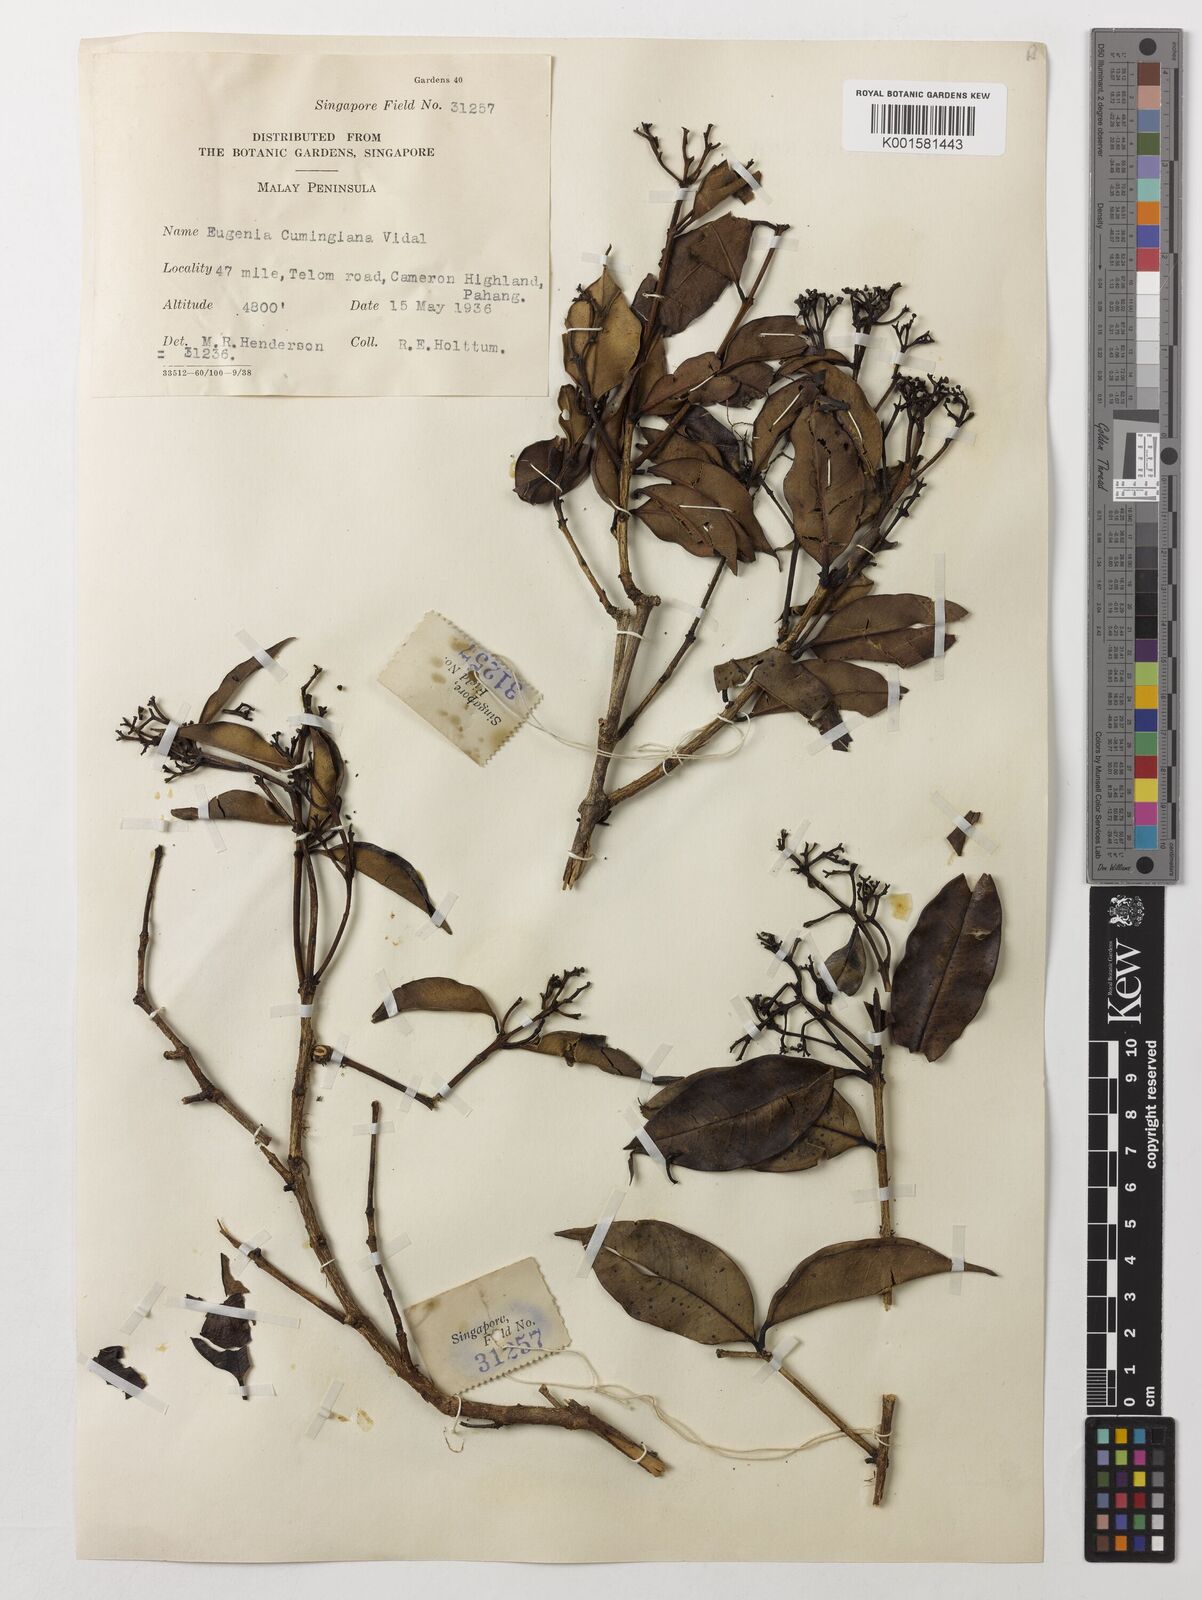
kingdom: Plantae
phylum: Tracheophyta
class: Magnoliopsida
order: Myrtales
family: Myrtaceae
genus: Syzygium
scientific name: Syzygium acuminatissimum
